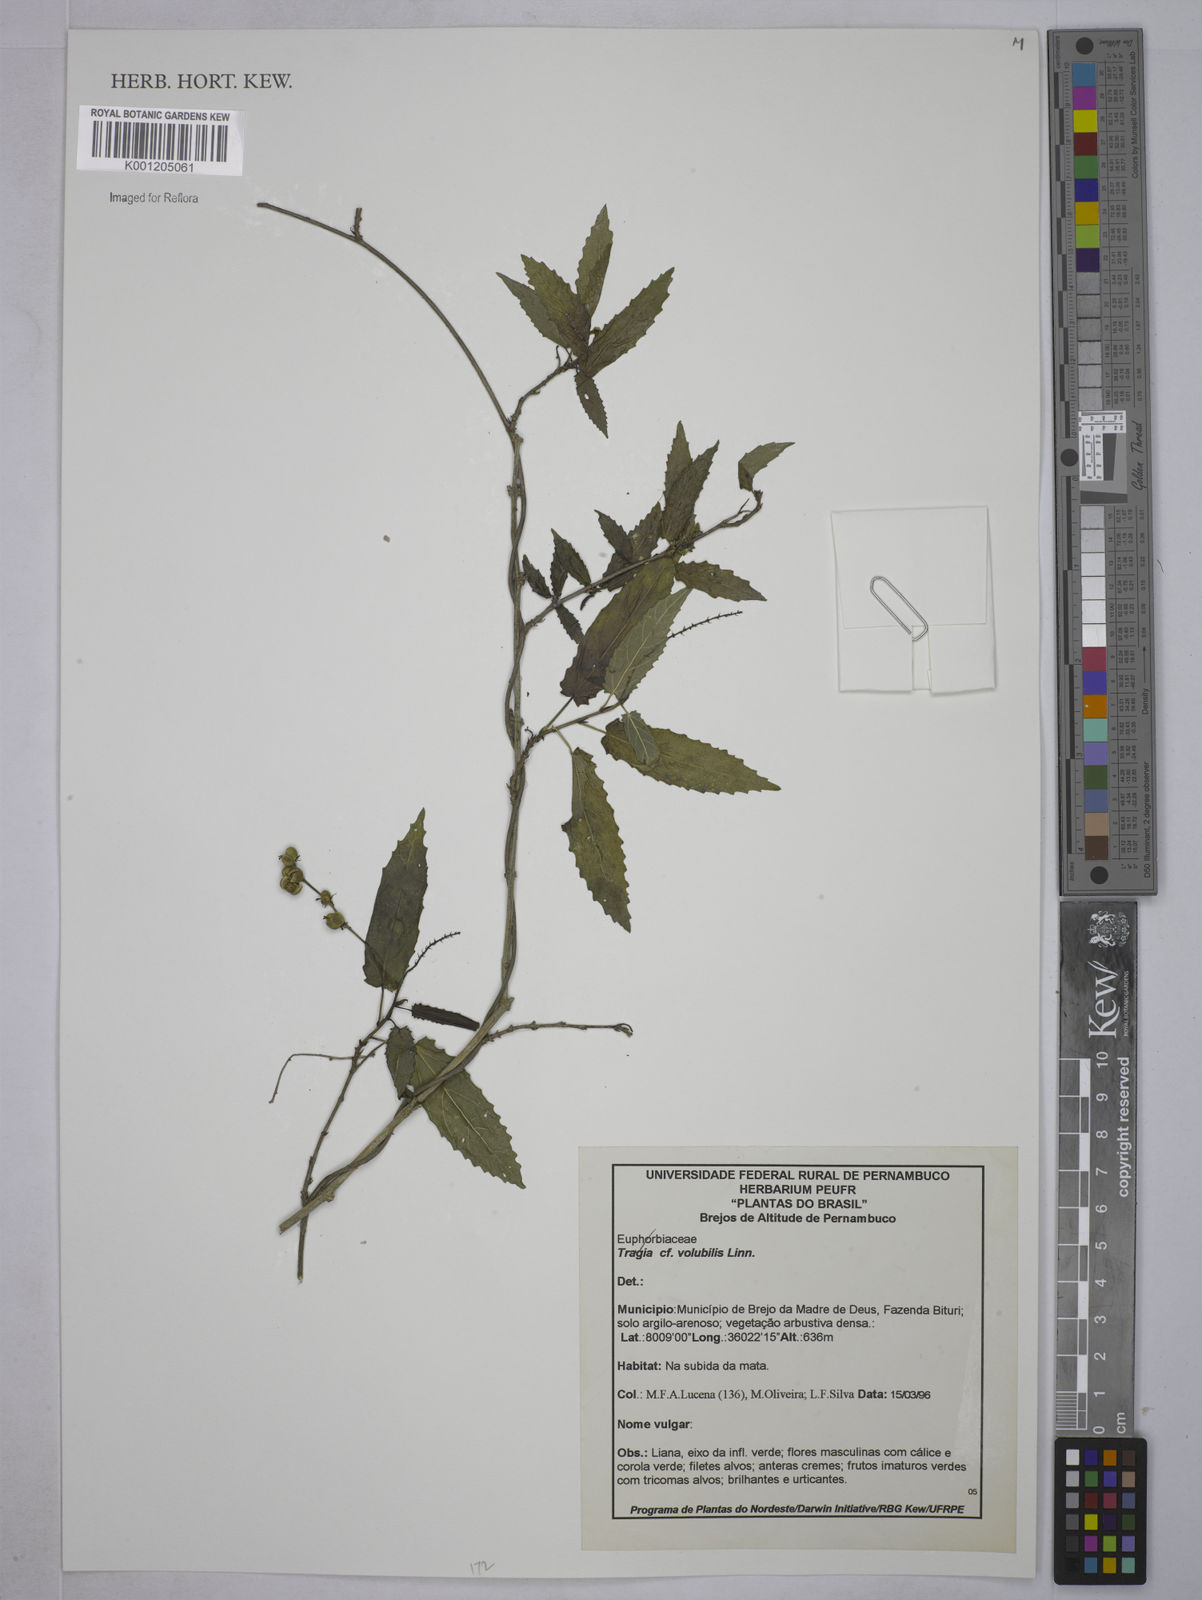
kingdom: Plantae
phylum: Tracheophyta
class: Magnoliopsida
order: Malpighiales
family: Euphorbiaceae
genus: Tragia
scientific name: Tragia volubilis
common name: Twining cow-itch
